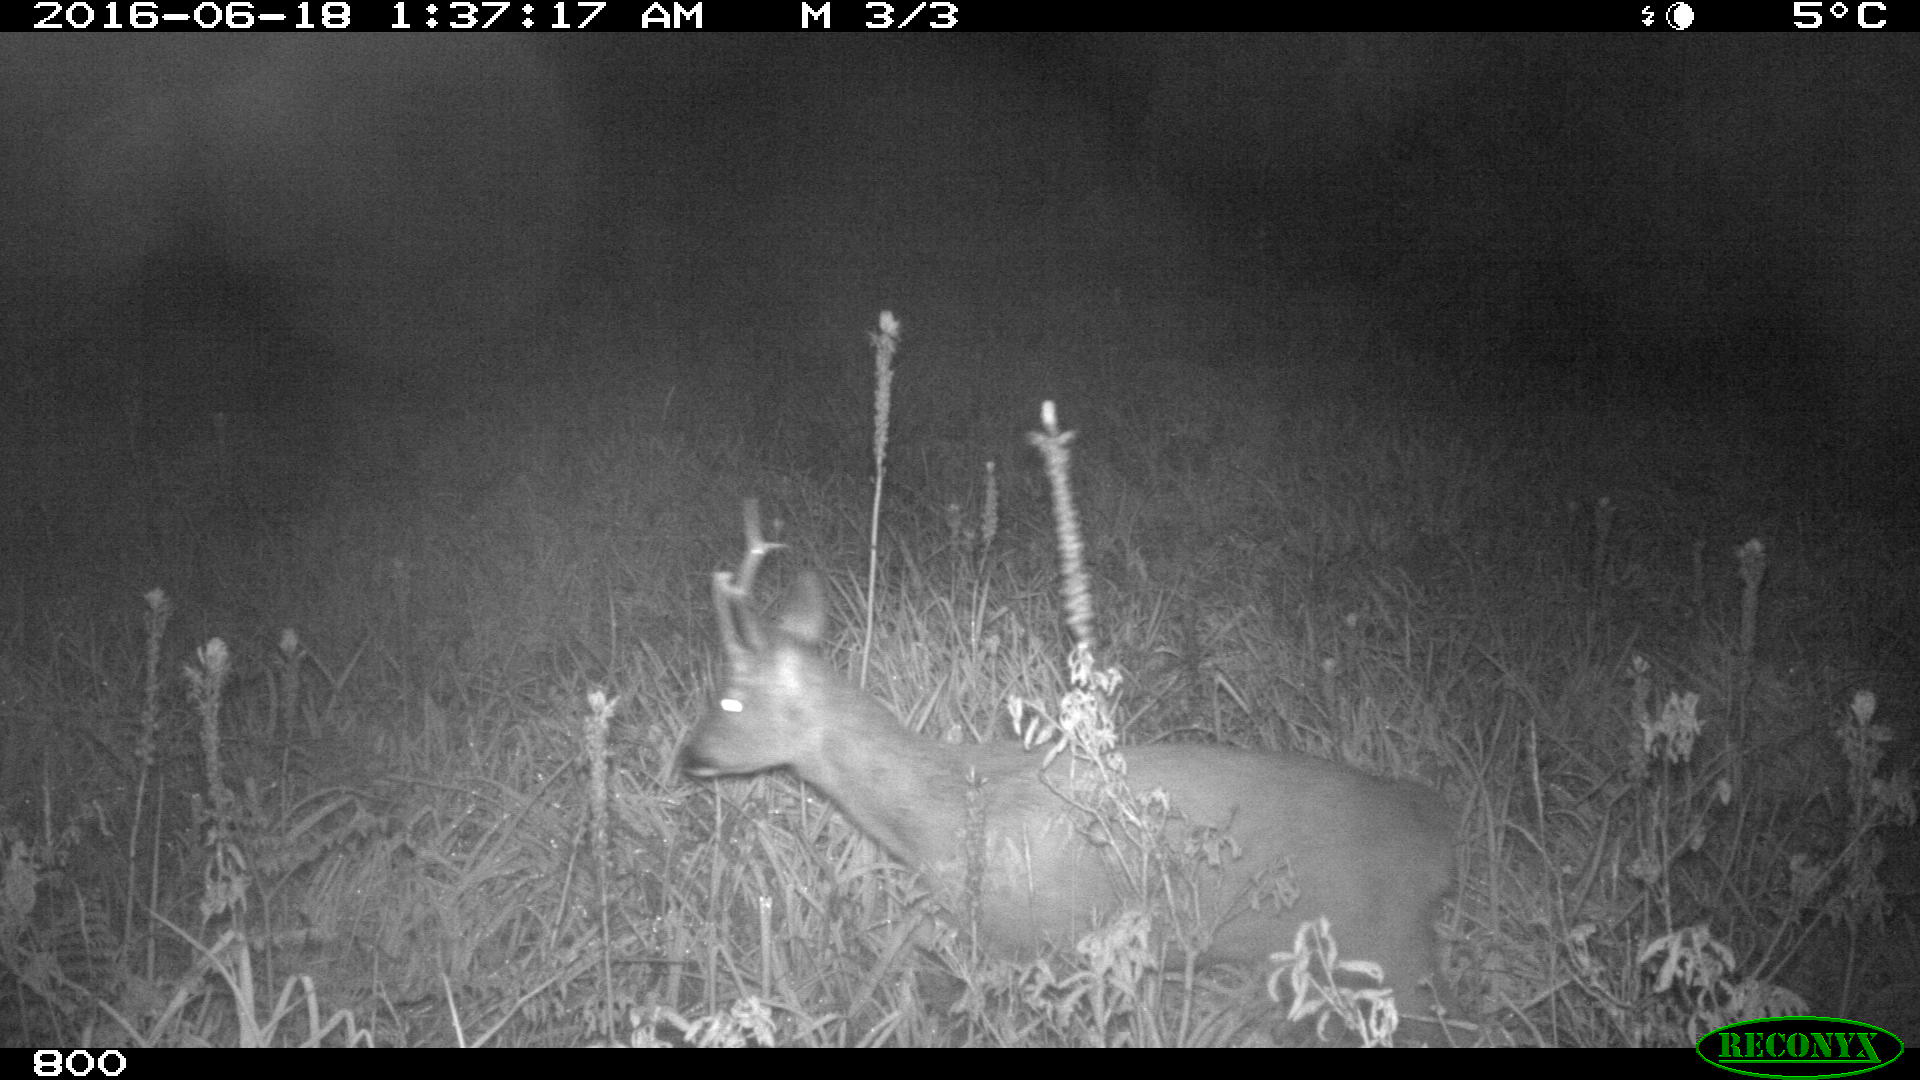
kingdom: Animalia
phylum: Chordata
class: Mammalia
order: Artiodactyla
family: Cervidae
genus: Capreolus
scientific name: Capreolus capreolus
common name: Western roe deer
